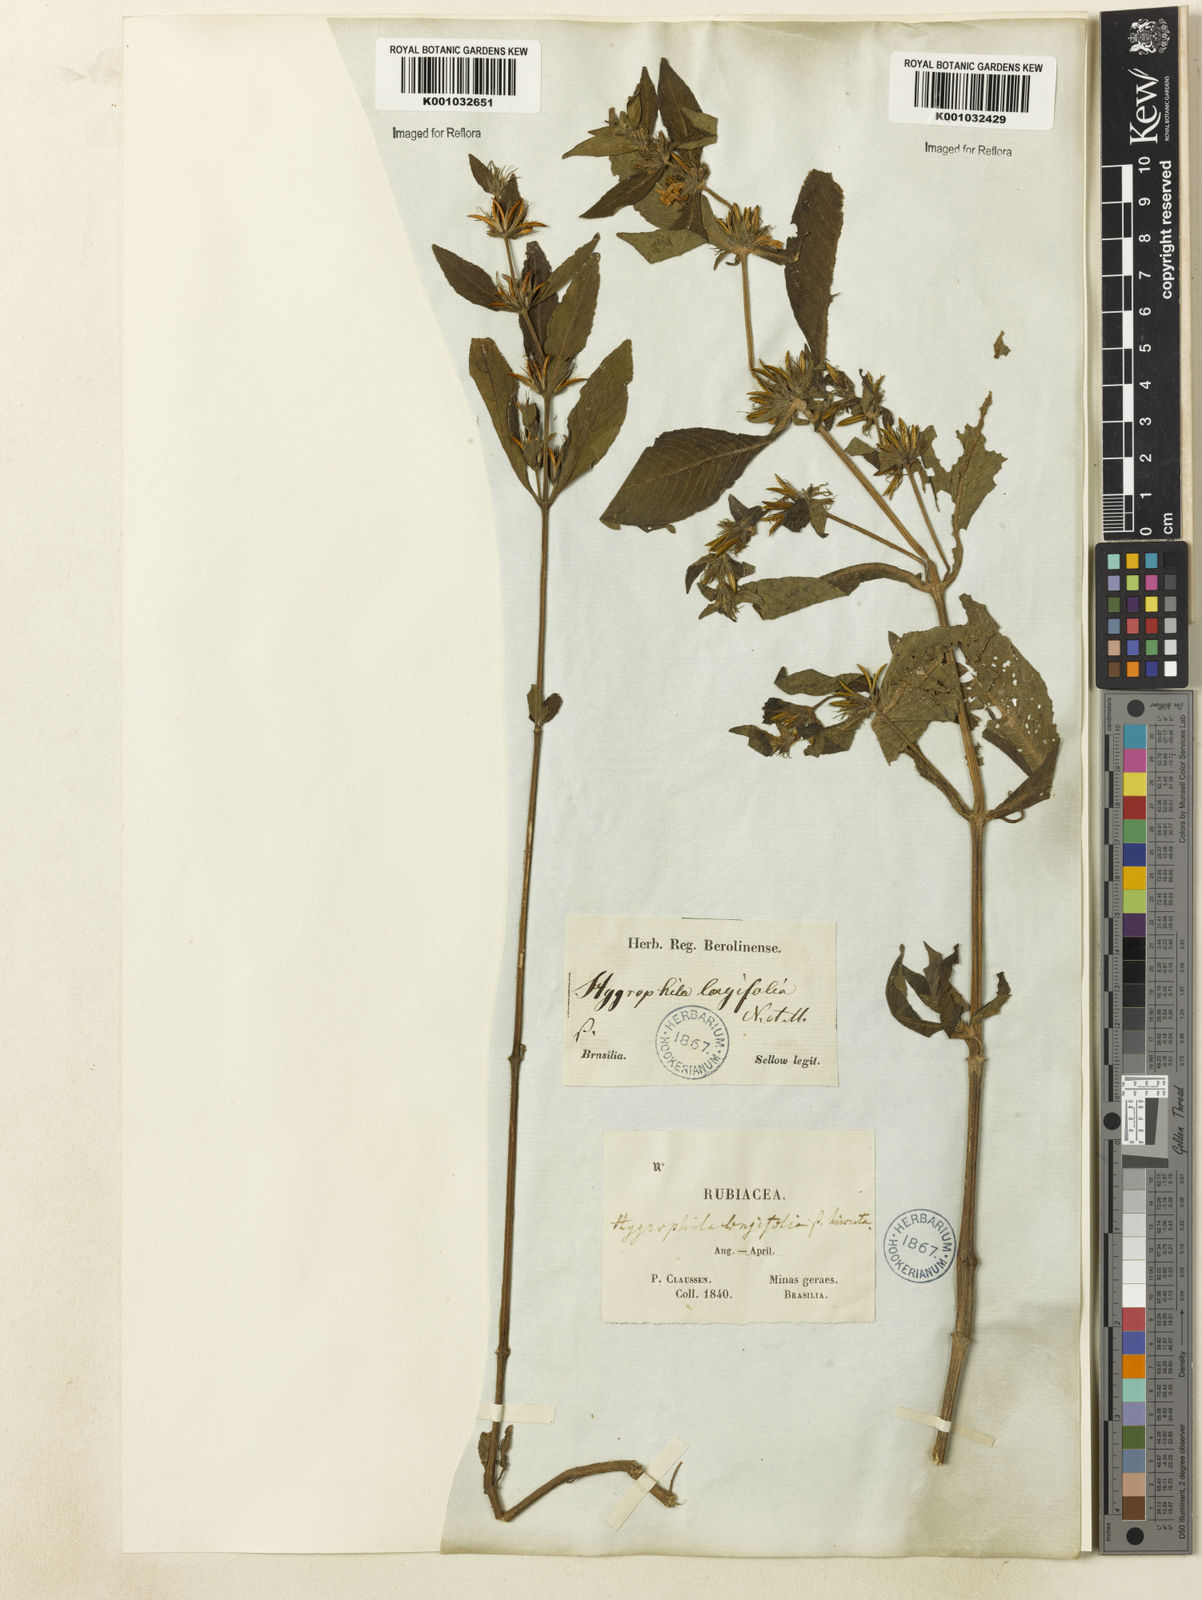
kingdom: Plantae
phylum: Tracheophyta
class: Magnoliopsida
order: Lamiales
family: Acanthaceae
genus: Hygrophila
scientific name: Hygrophila costata
